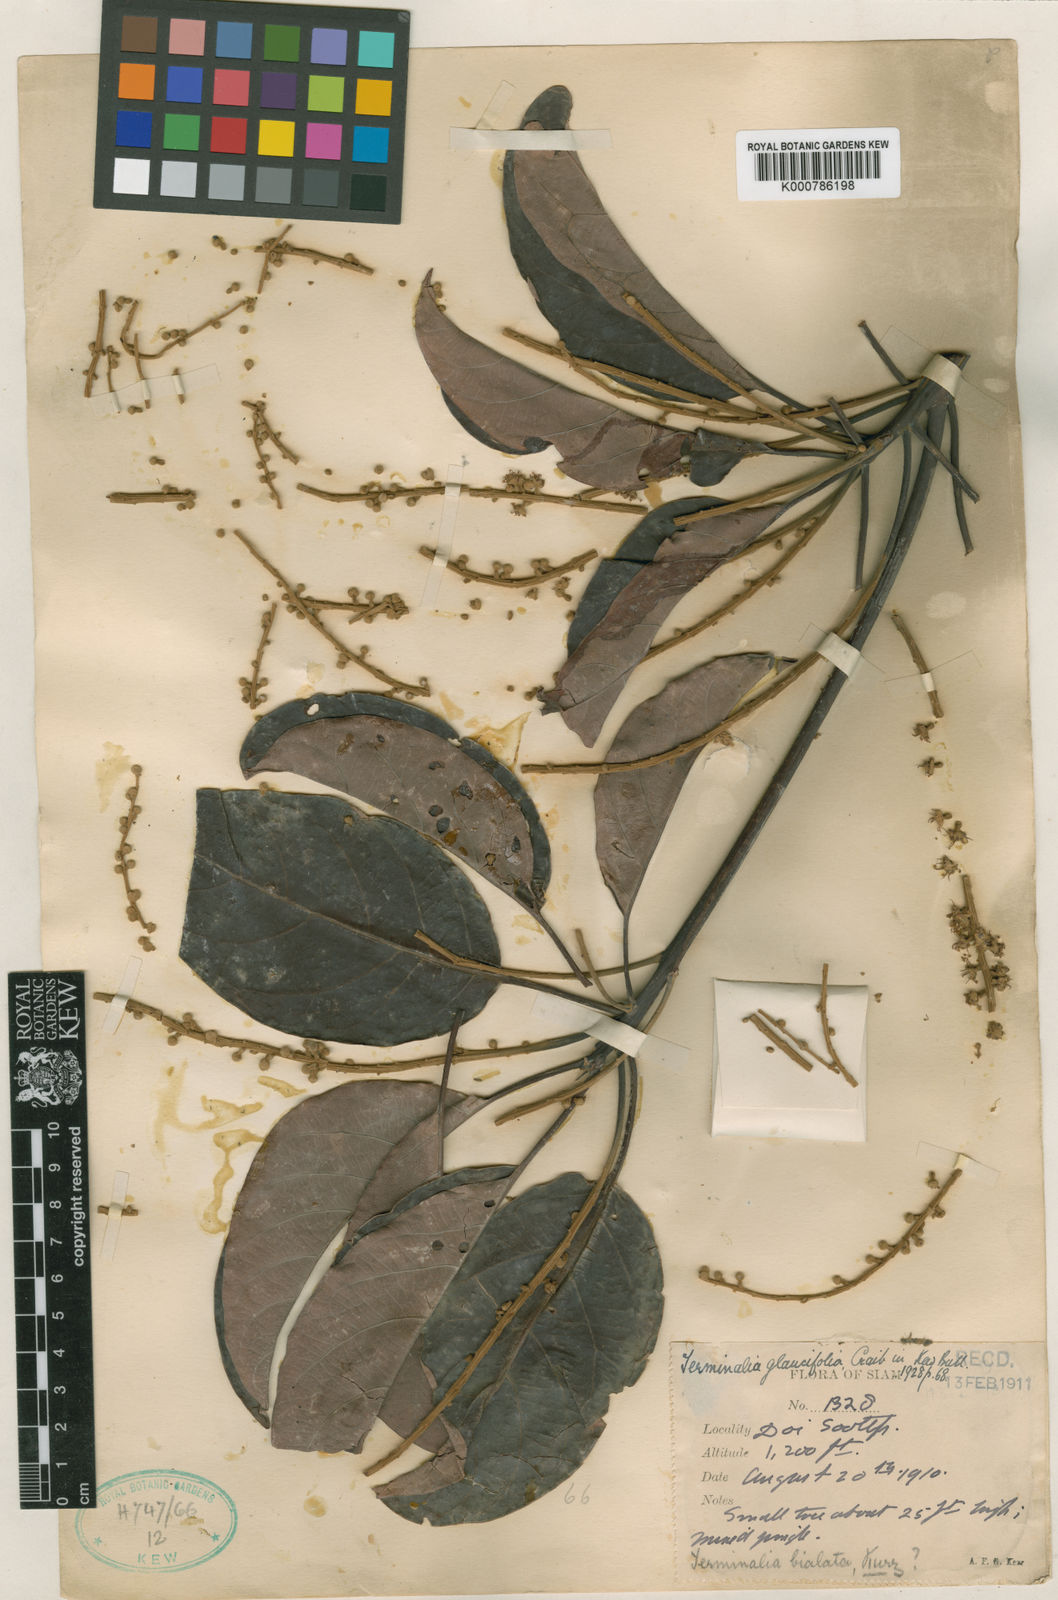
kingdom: Plantae
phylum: Tracheophyta
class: Magnoliopsida
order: Myrtales
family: Combretaceae
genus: Terminalia
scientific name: Terminalia glaucifolia
